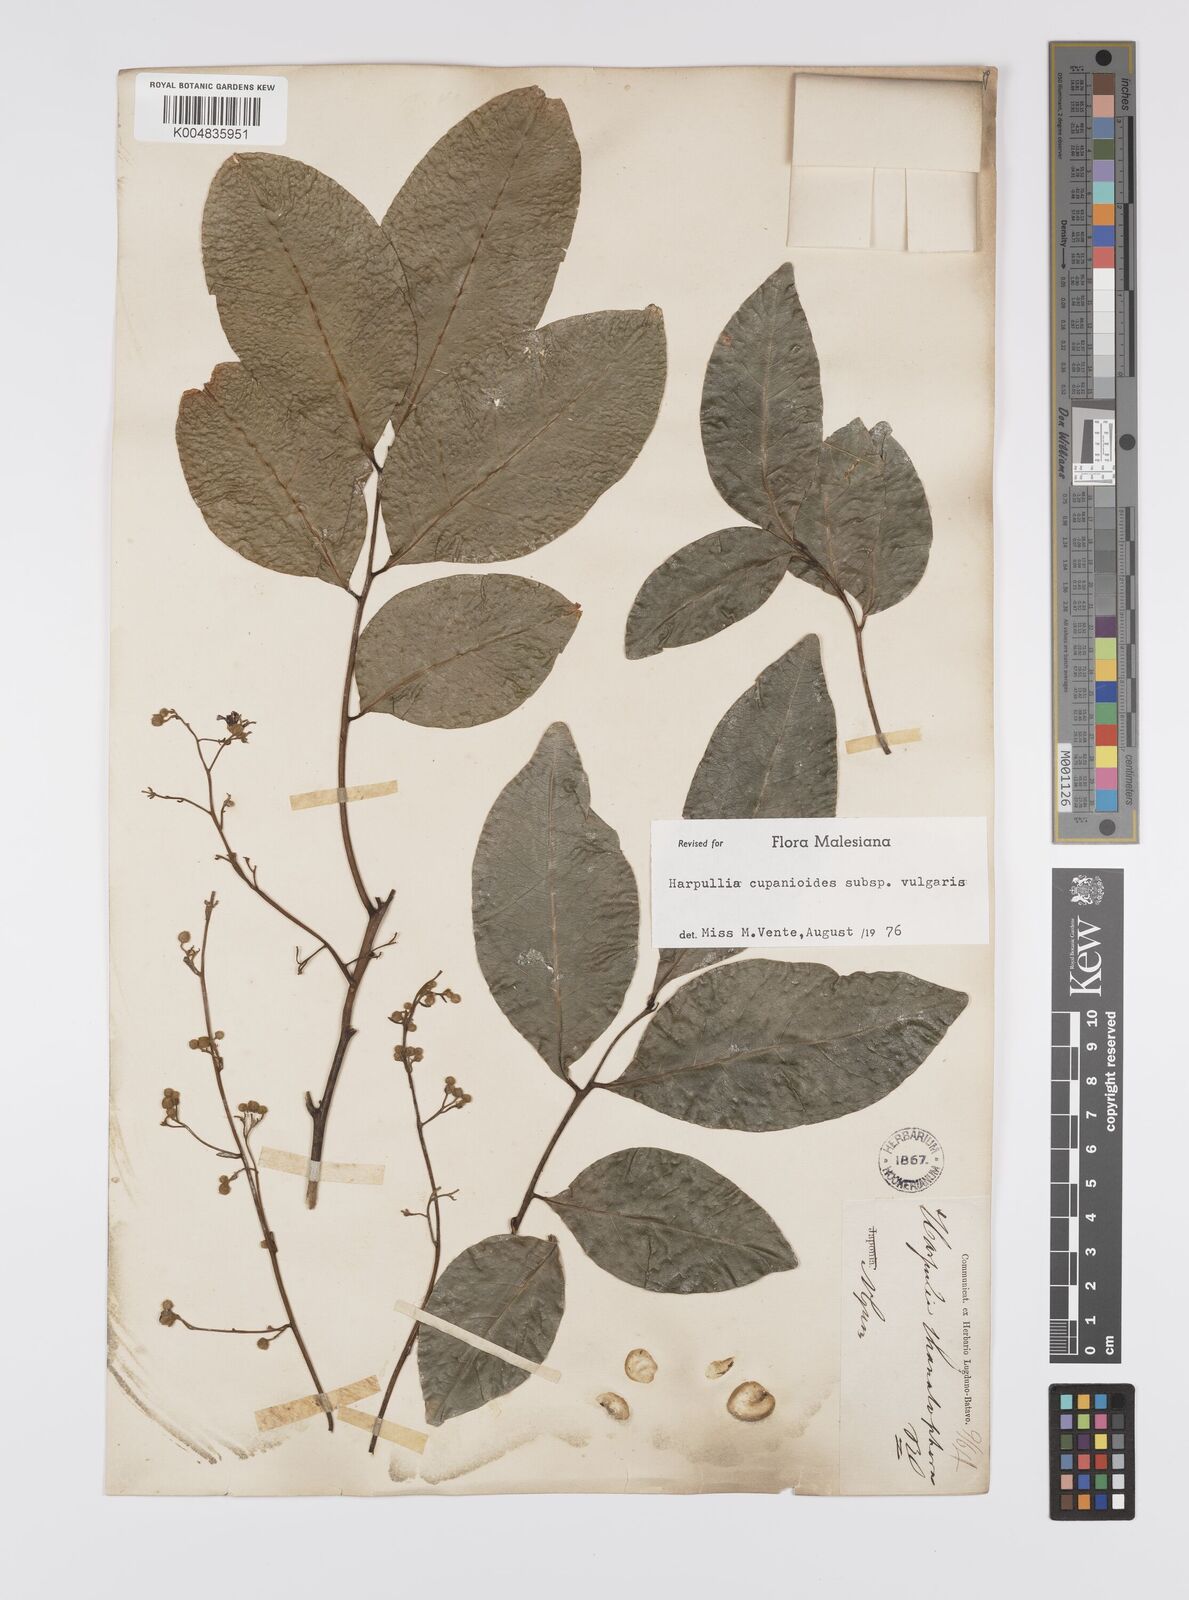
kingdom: Plantae
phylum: Tracheophyta
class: Magnoliopsida
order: Sapindales
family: Sapindaceae
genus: Harpullia
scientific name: Harpullia cupanioides
